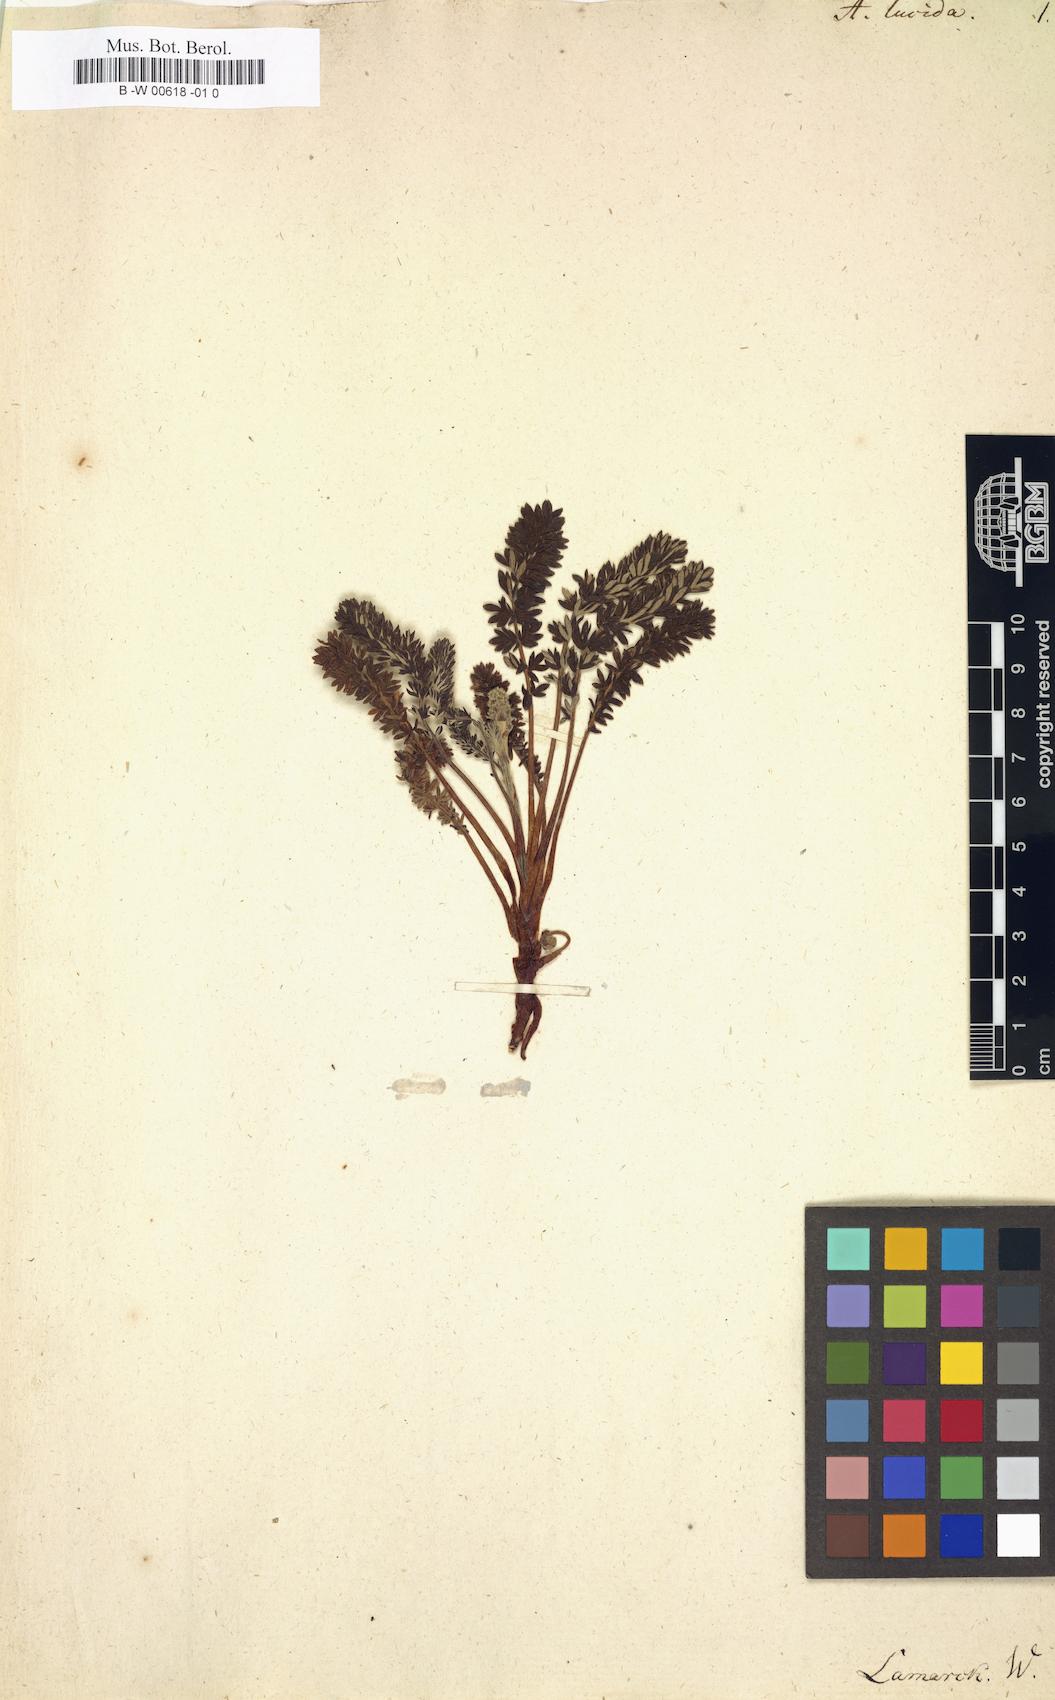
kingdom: Plantae
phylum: Tracheophyta
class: Magnoliopsida
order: Rosales
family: Rosaceae
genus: Acaena
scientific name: Acaena lucida
